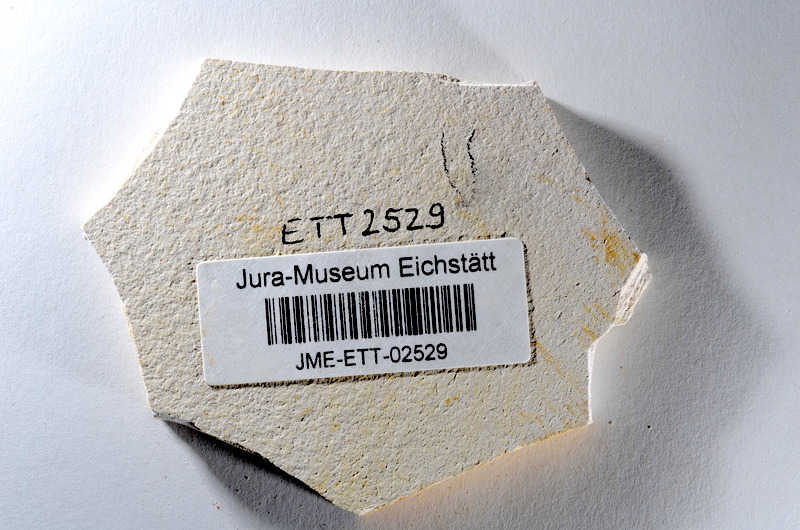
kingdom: Animalia
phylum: Chordata
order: Salmoniformes
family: Orthogonikleithridae
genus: Orthogonikleithrus
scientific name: Orthogonikleithrus hoelli
